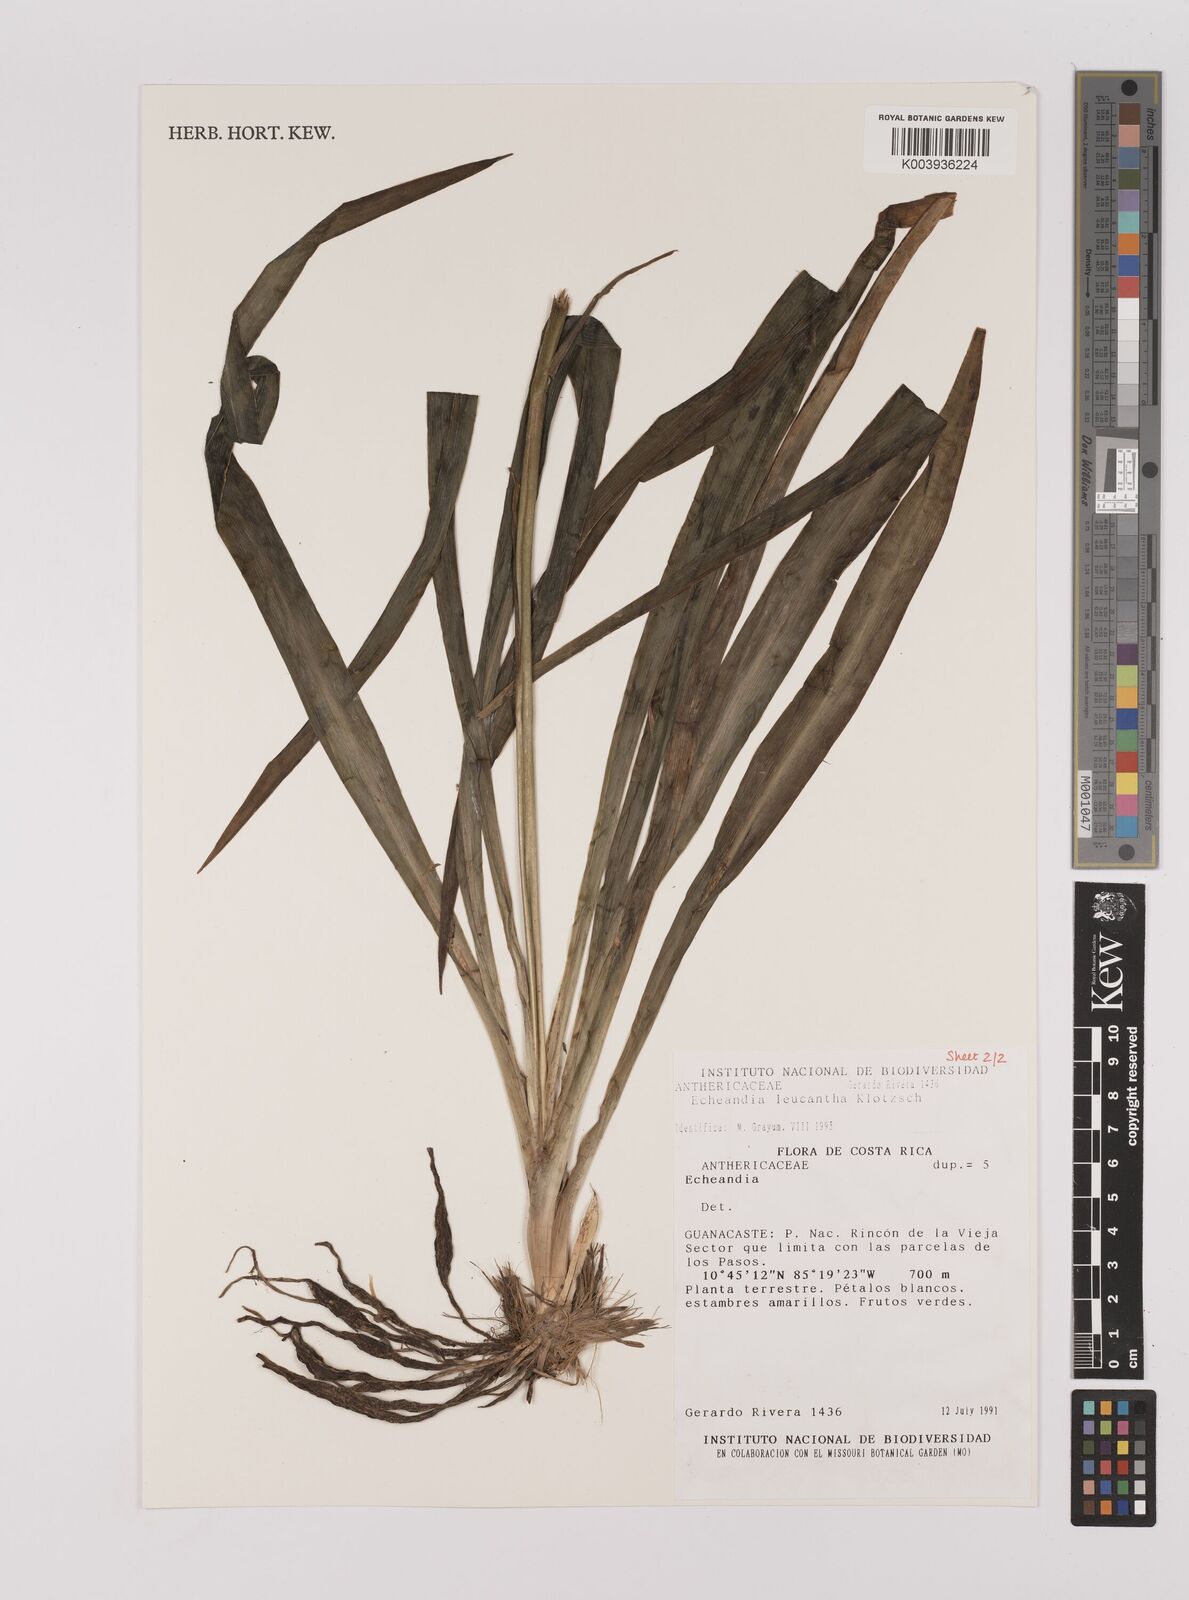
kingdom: Plantae
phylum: Tracheophyta
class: Liliopsida
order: Asparagales
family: Asparagaceae
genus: Echeandia
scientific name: Echeandia
